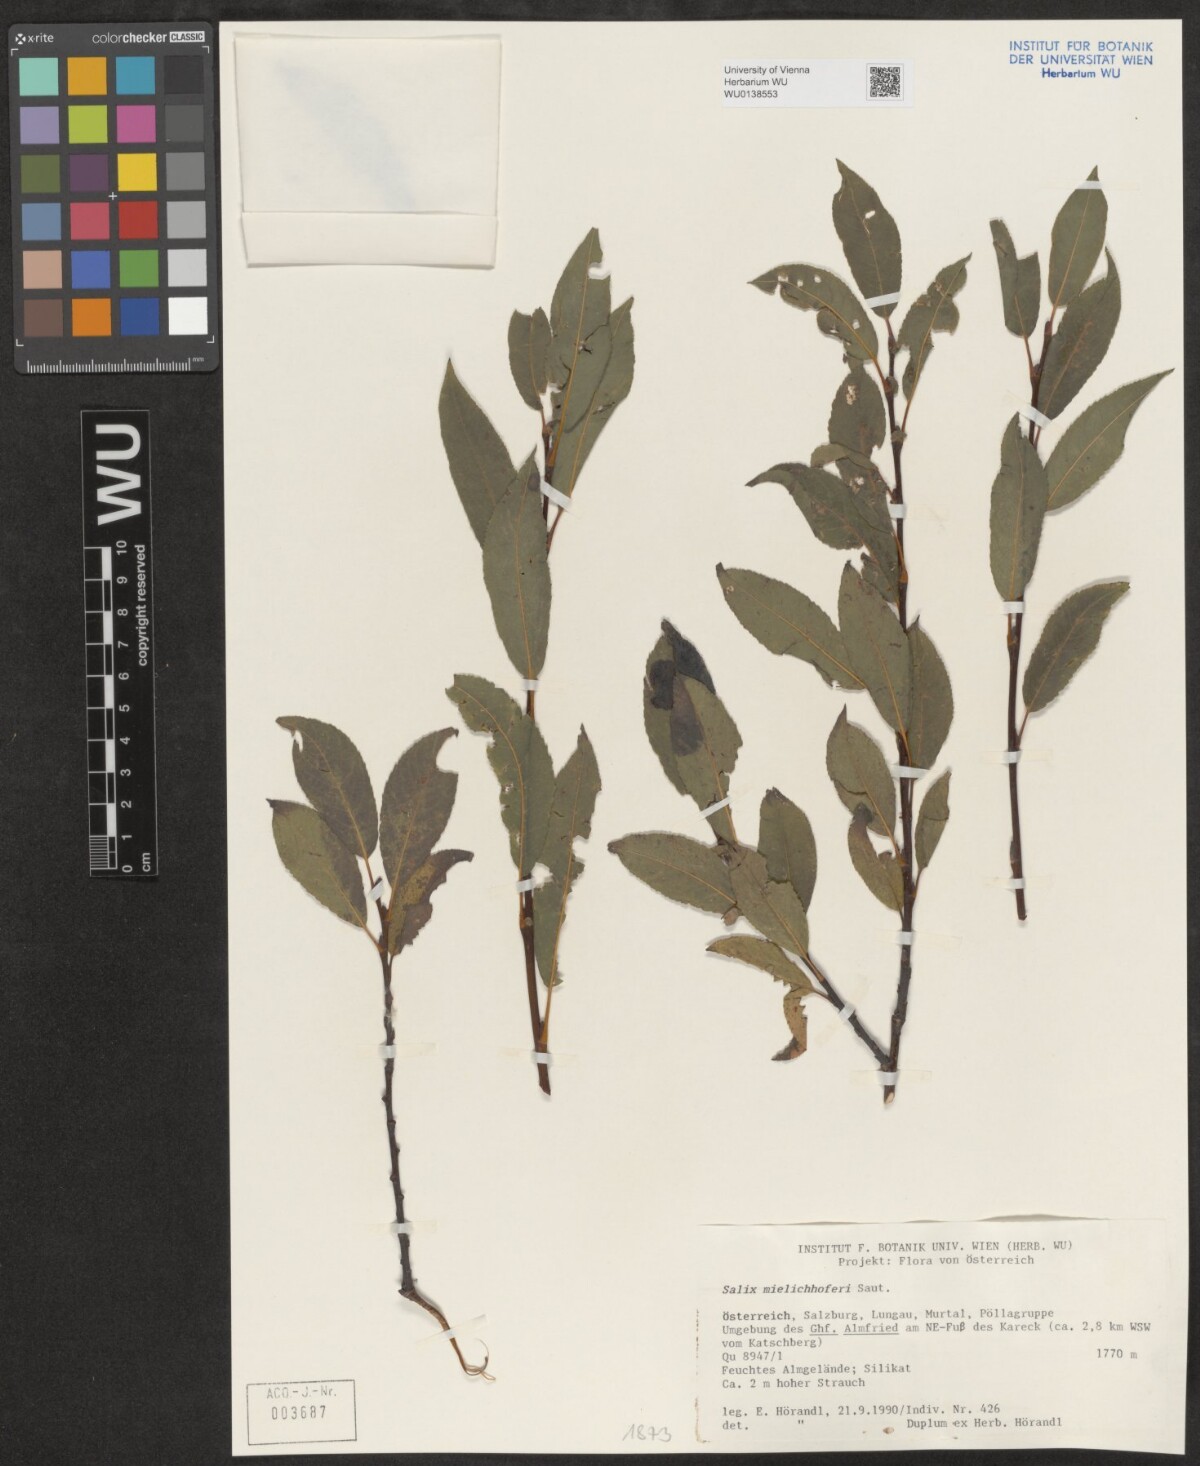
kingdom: Plantae
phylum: Tracheophyta
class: Magnoliopsida
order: Malpighiales
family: Salicaceae
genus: Salix
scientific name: Salix mielichhoferi
